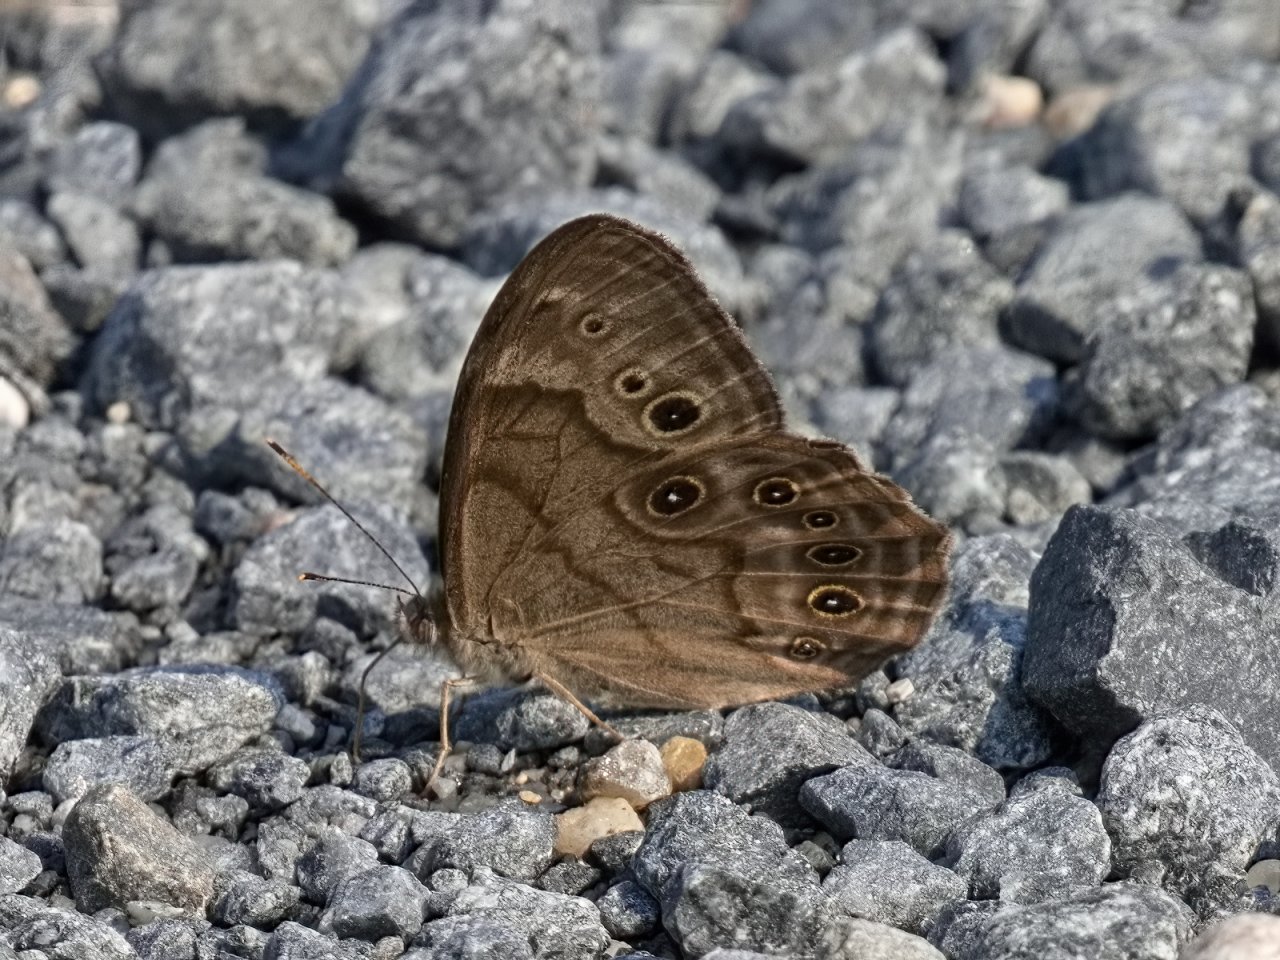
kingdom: Animalia
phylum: Arthropoda
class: Insecta
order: Lepidoptera
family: Nymphalidae
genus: Lethe
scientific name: Lethe anthedon
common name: Northern Pearly-Eye
